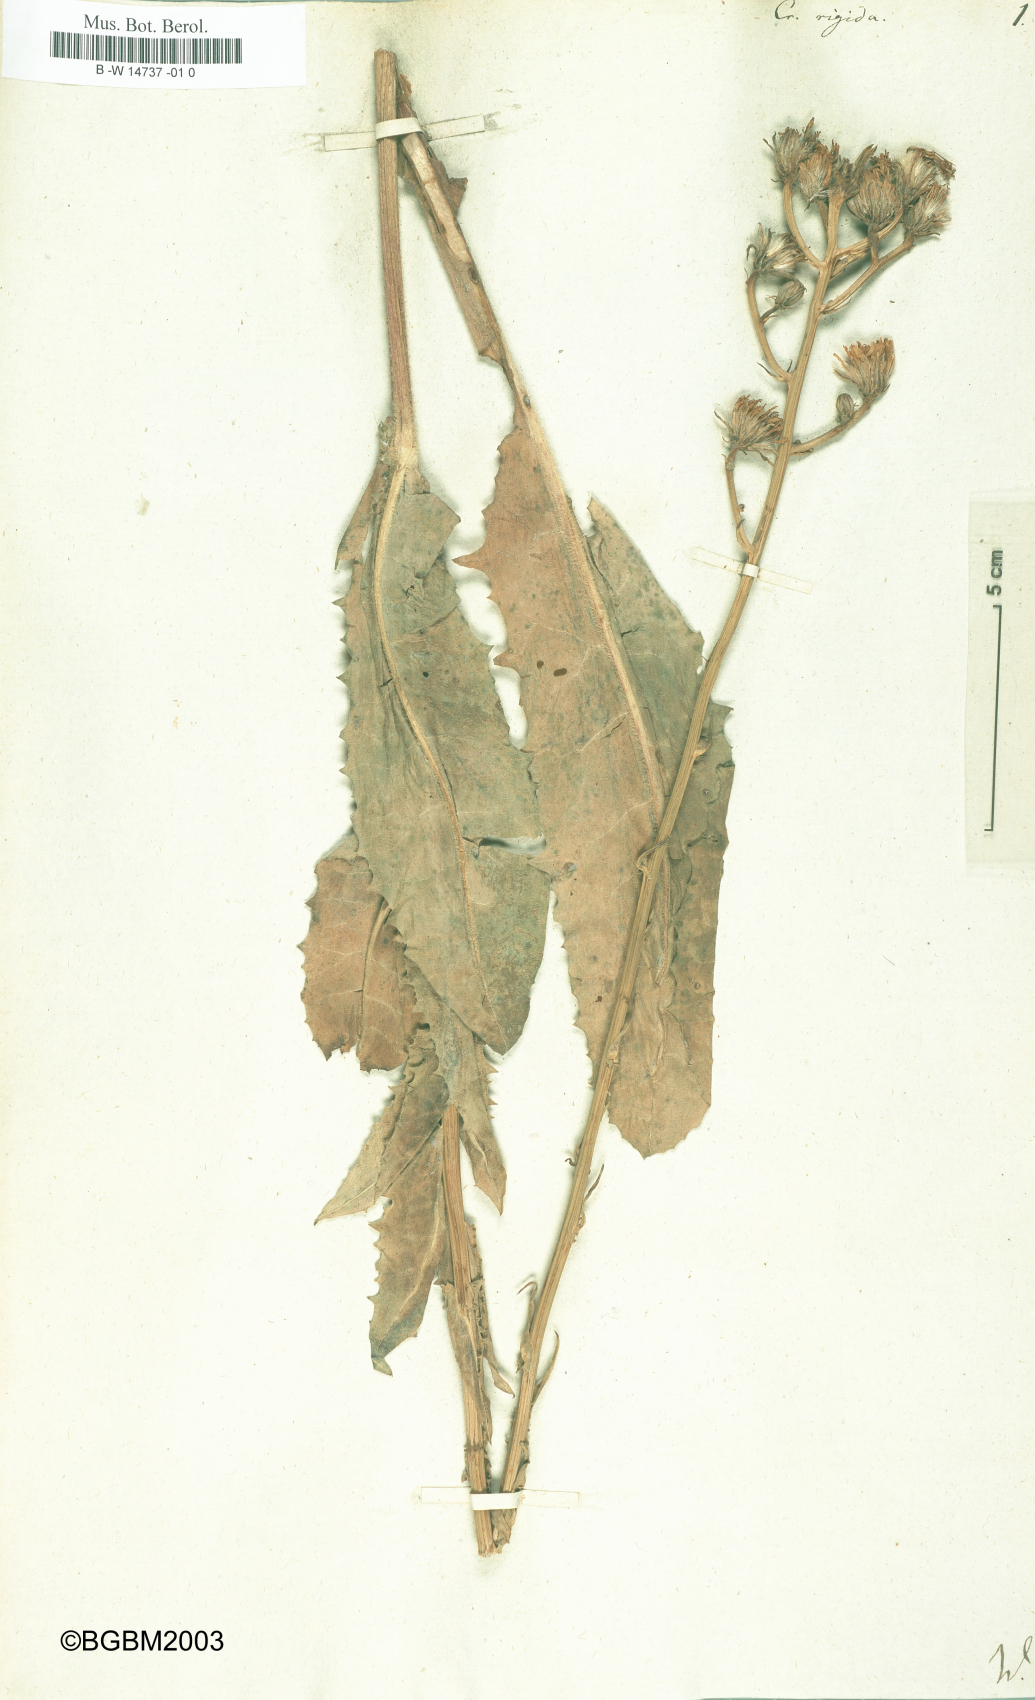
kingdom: Plantae
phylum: Tracheophyta
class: Magnoliopsida
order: Asterales
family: Asteraceae
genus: Crepis
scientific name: Crepis pannonica
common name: Pasture hawksbeard
